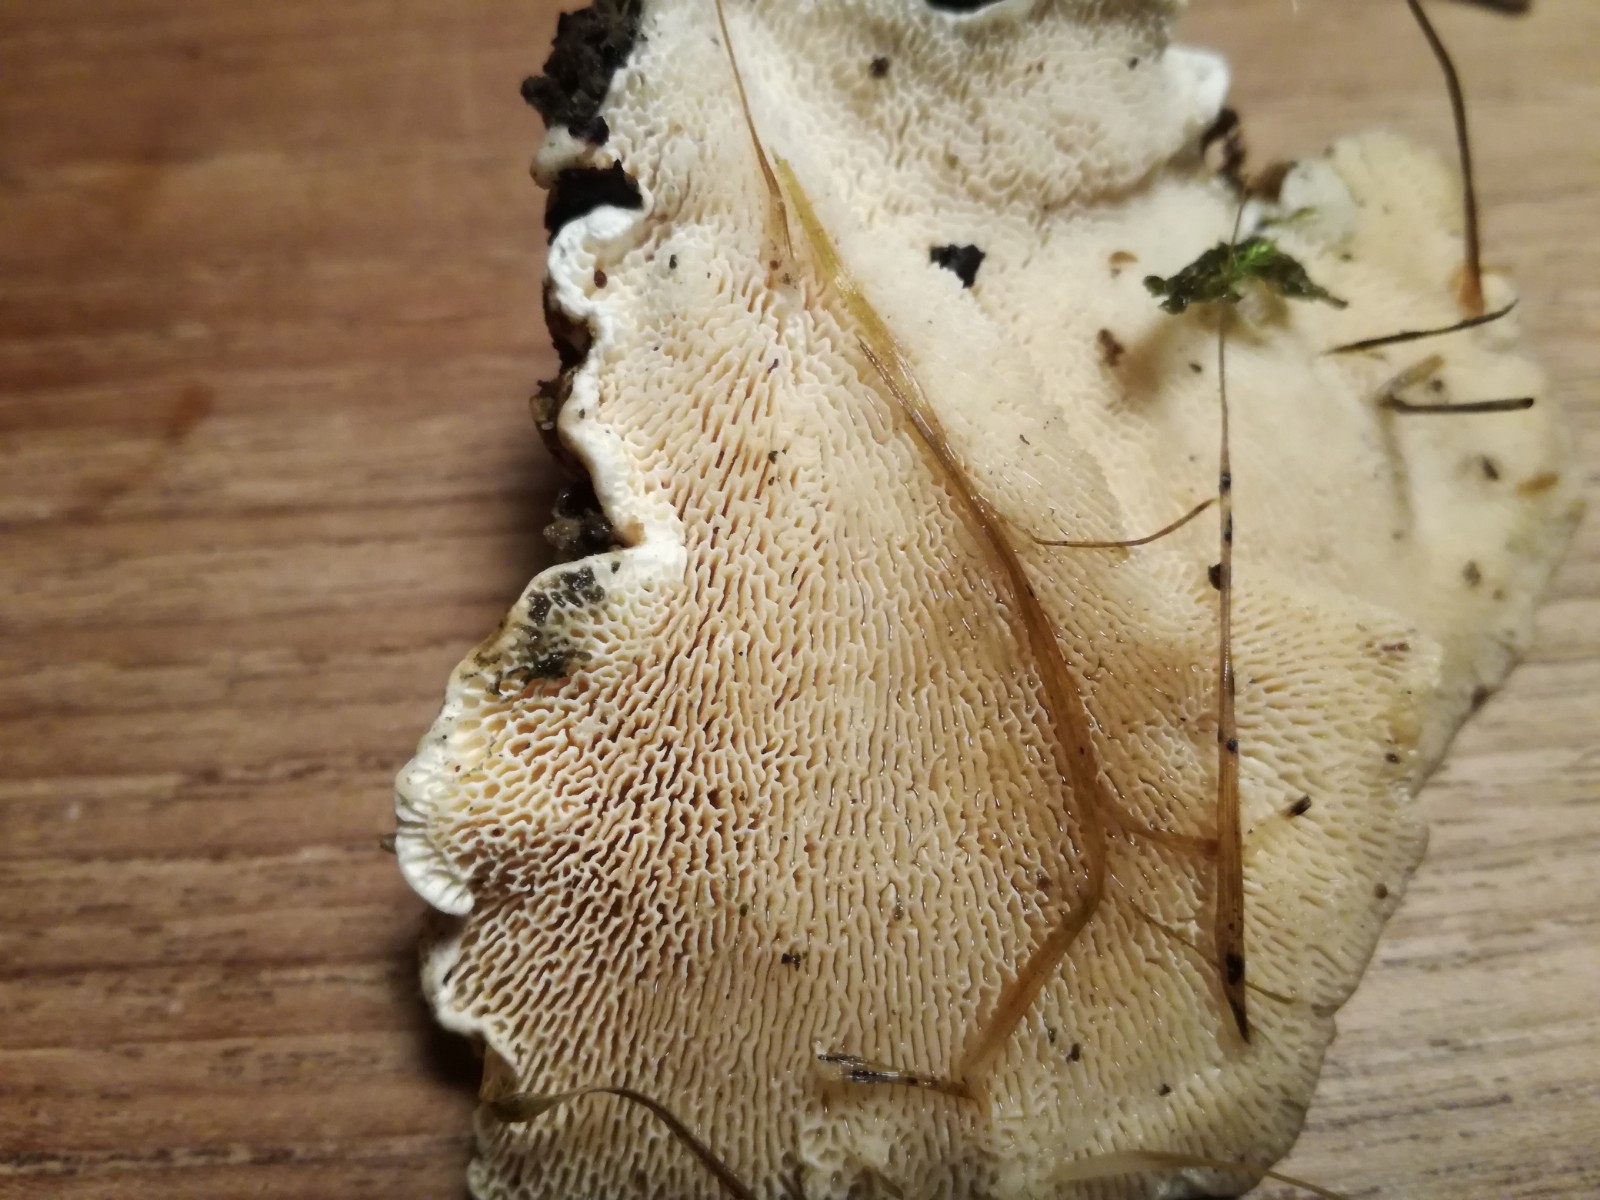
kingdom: Fungi
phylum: Basidiomycota
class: Agaricomycetes
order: Polyporales
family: Polyporaceae
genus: Trametes
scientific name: Trametes gibbosa
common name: puklet læderporesvamp
